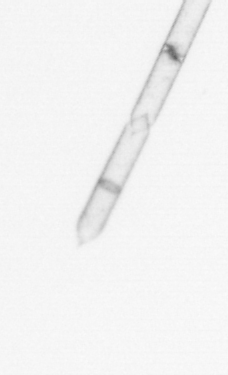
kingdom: Chromista
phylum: Ochrophyta
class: Bacillariophyceae
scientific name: Bacillariophyceae
